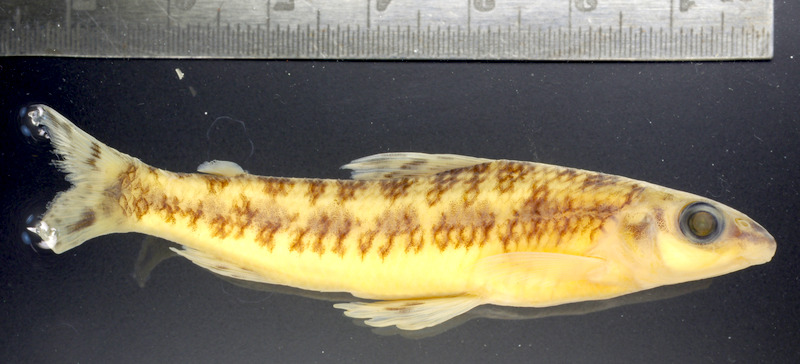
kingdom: Animalia
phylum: Chordata
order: Characiformes
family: Distichodontidae
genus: Nannocharax
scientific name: Nannocharax signifer
